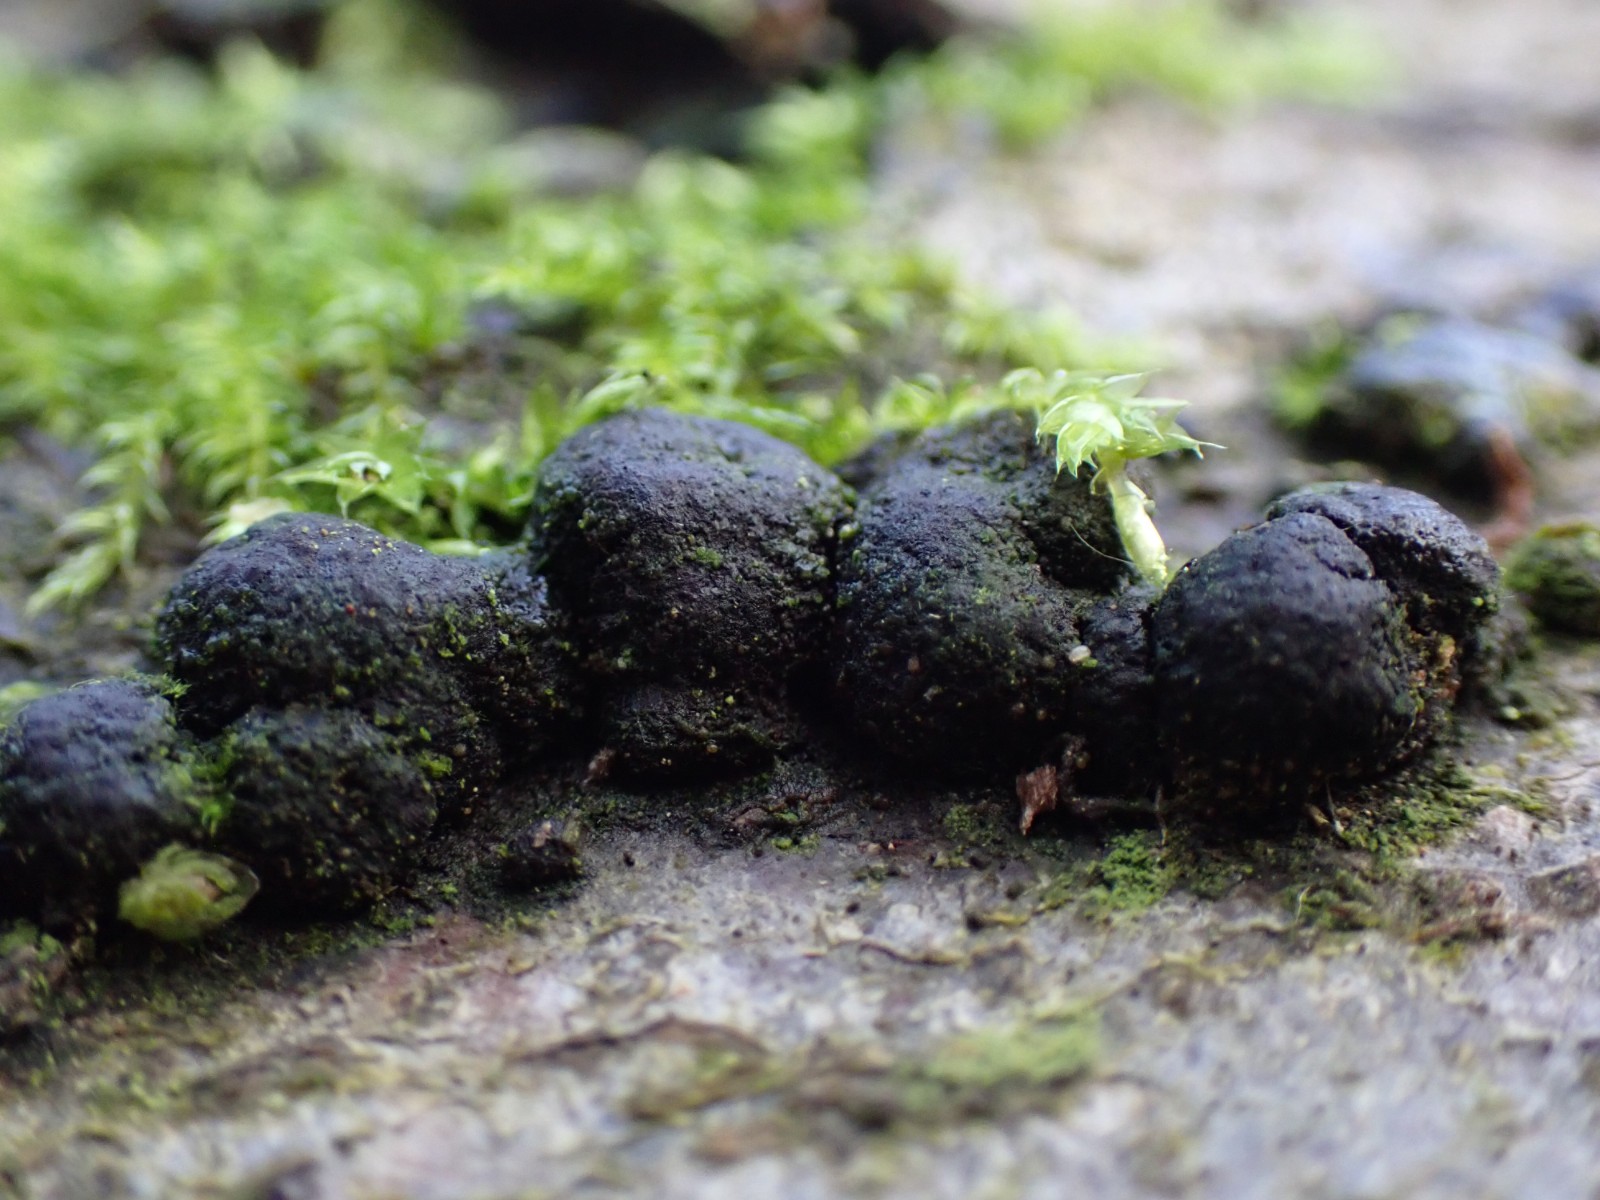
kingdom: Fungi
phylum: Ascomycota
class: Sordariomycetes
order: Xylariales
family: Hypoxylaceae
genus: Jackrogersella
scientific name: Jackrogersella
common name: kulbær
